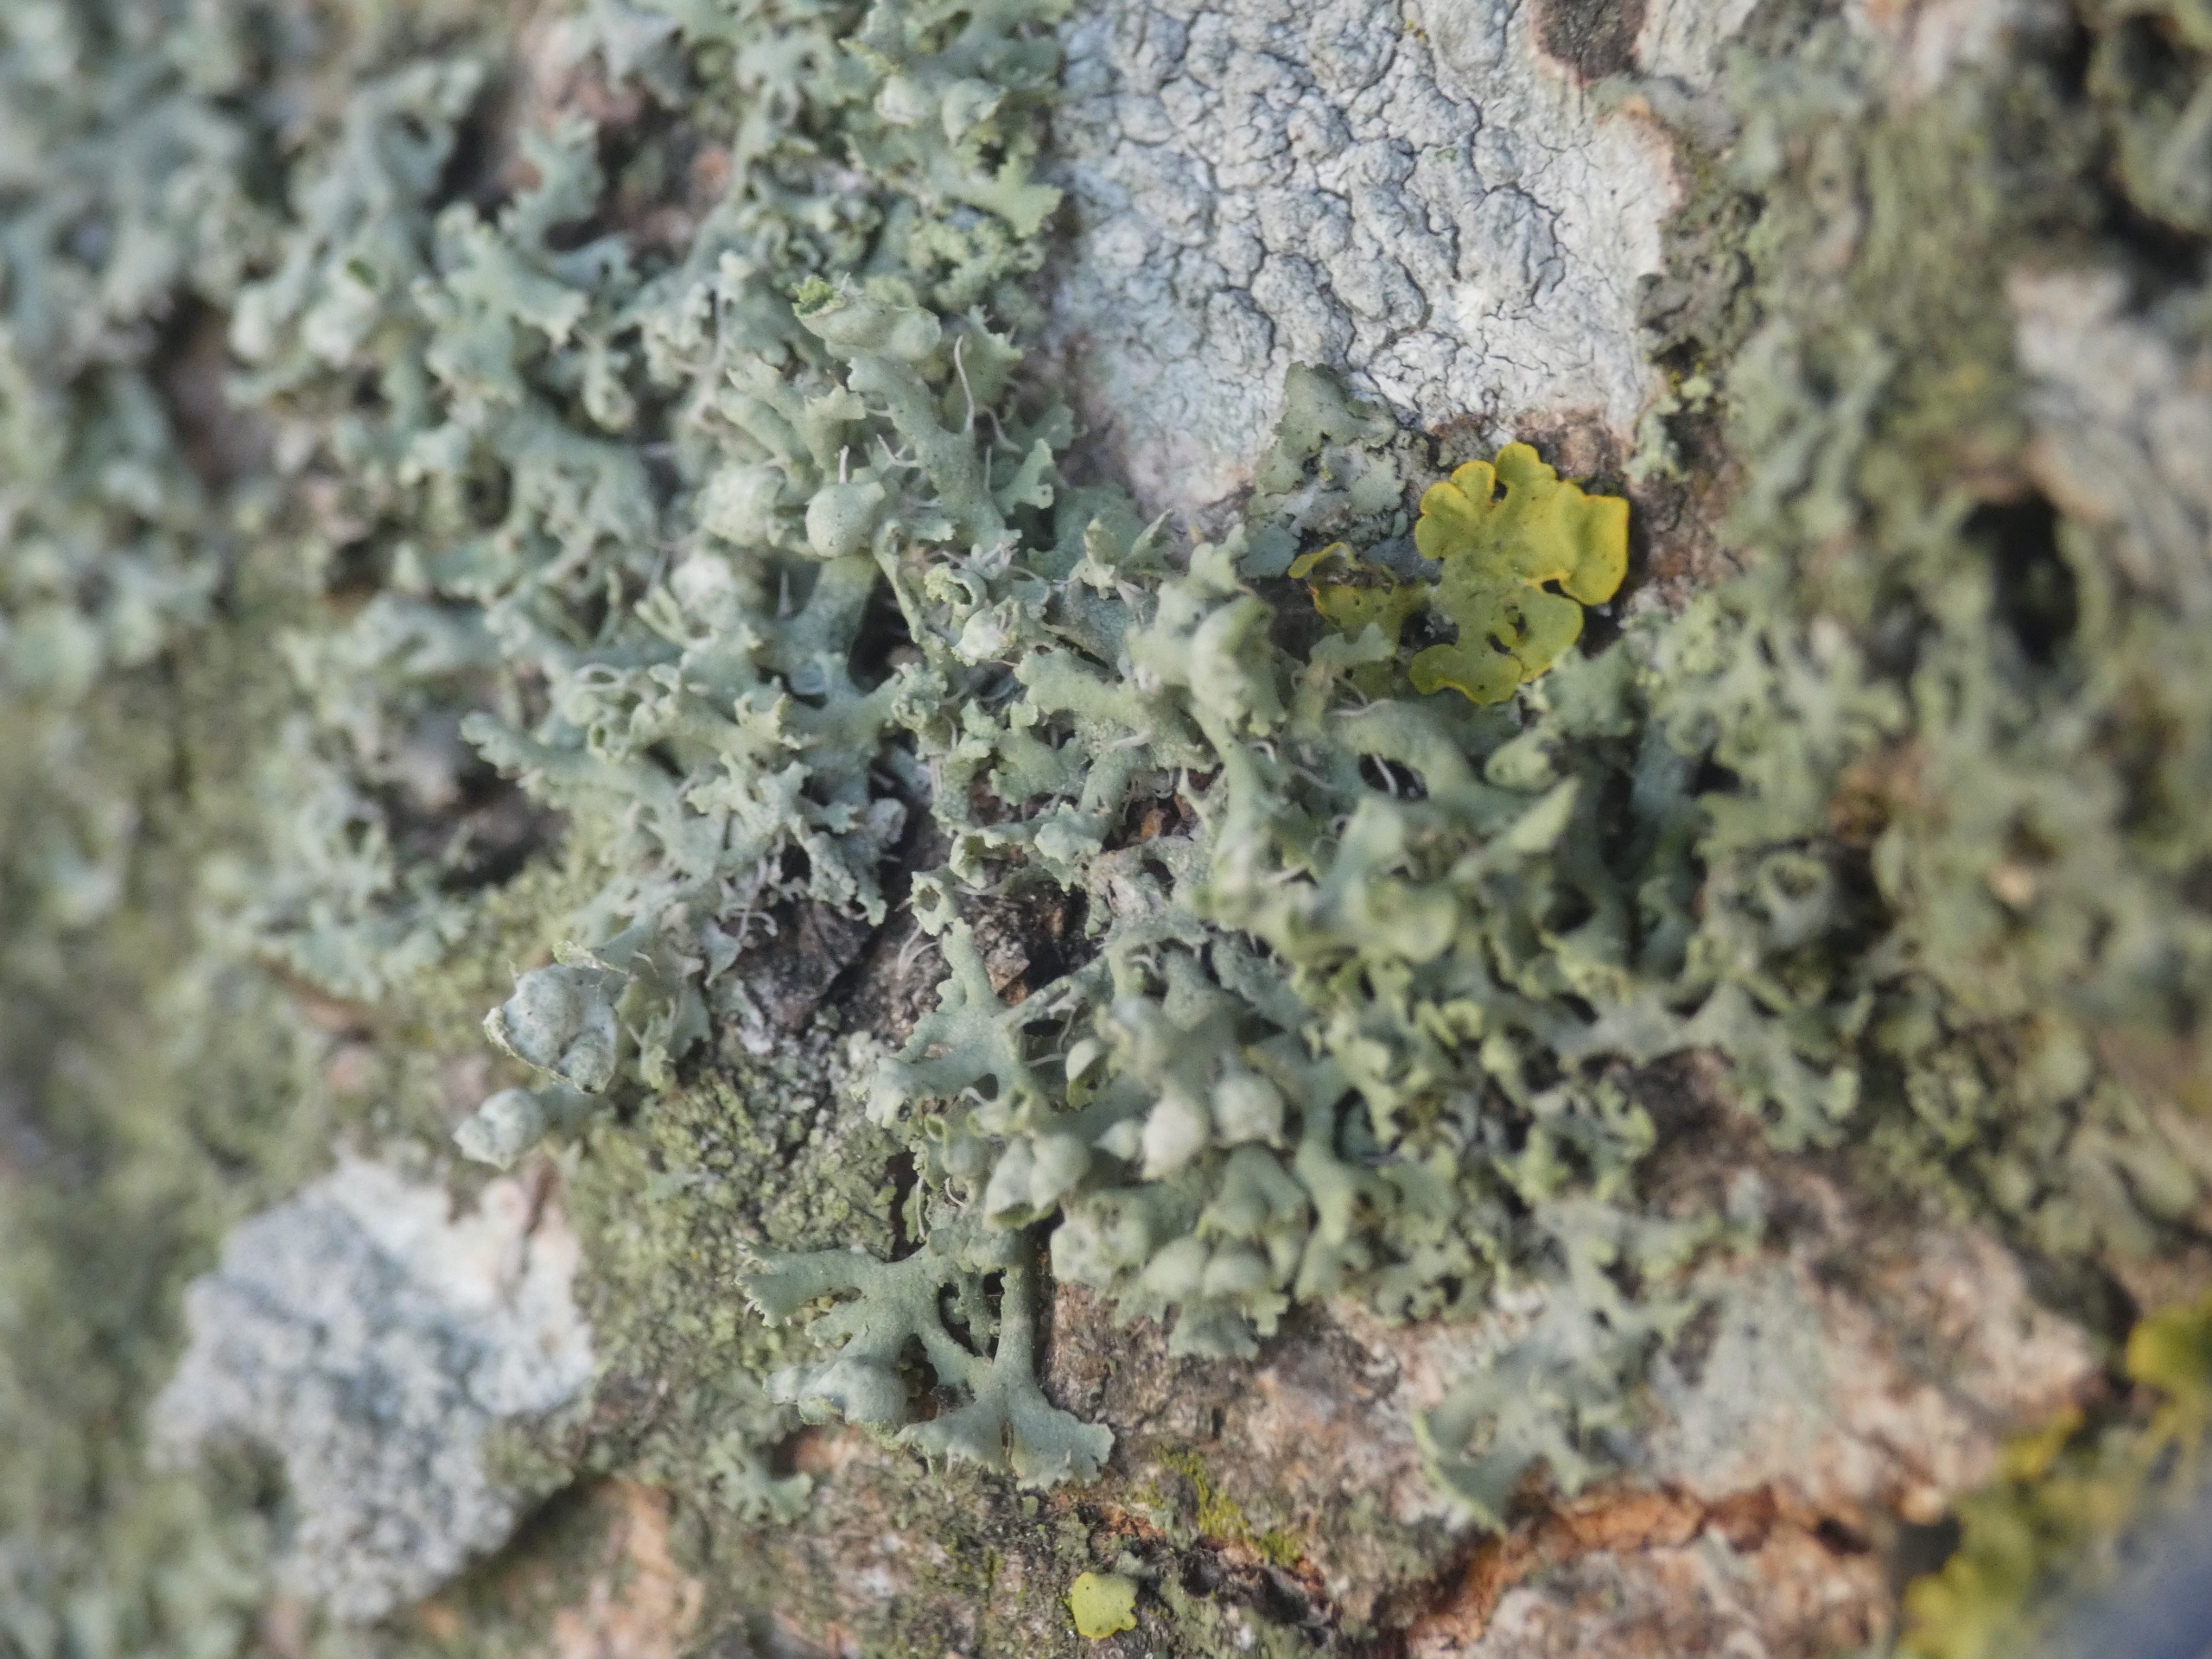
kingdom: Fungi
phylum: Ascomycota
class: Lecanoromycetes
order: Caliciales
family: Physciaceae
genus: Physcia
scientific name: Physcia tenella
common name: Spæd rosetlav
